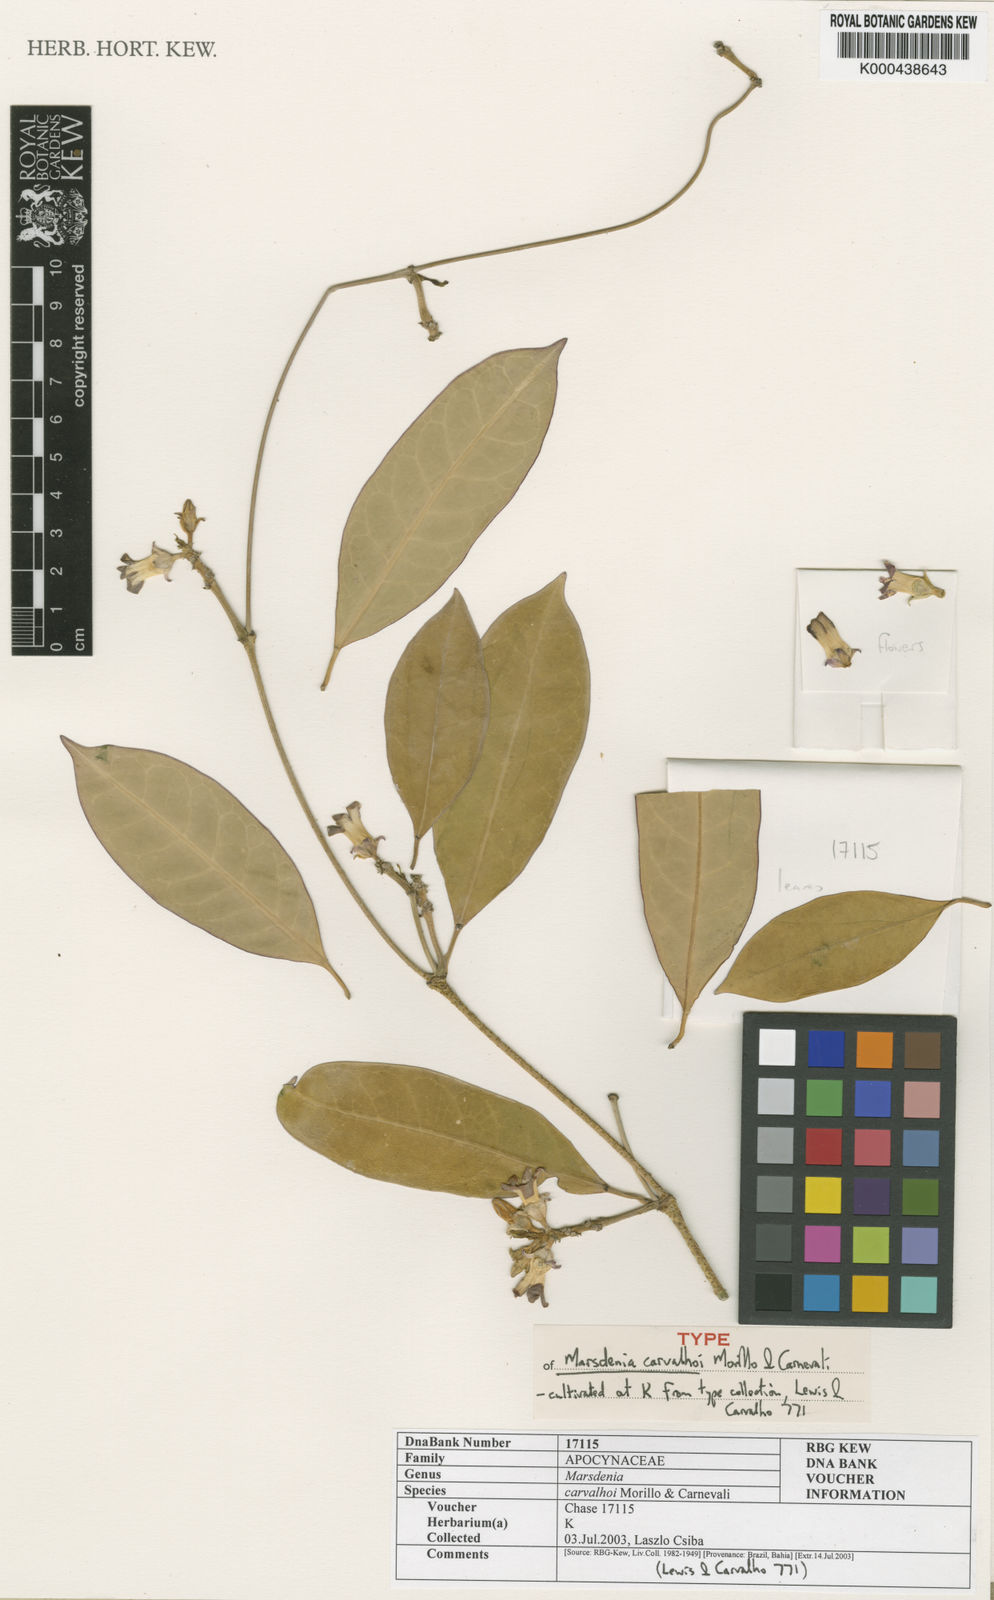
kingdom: Plantae
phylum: Tracheophyta
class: Magnoliopsida
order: Gentianales
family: Apocynaceae
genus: Ruehssia
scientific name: Ruehssia carvalhoi
